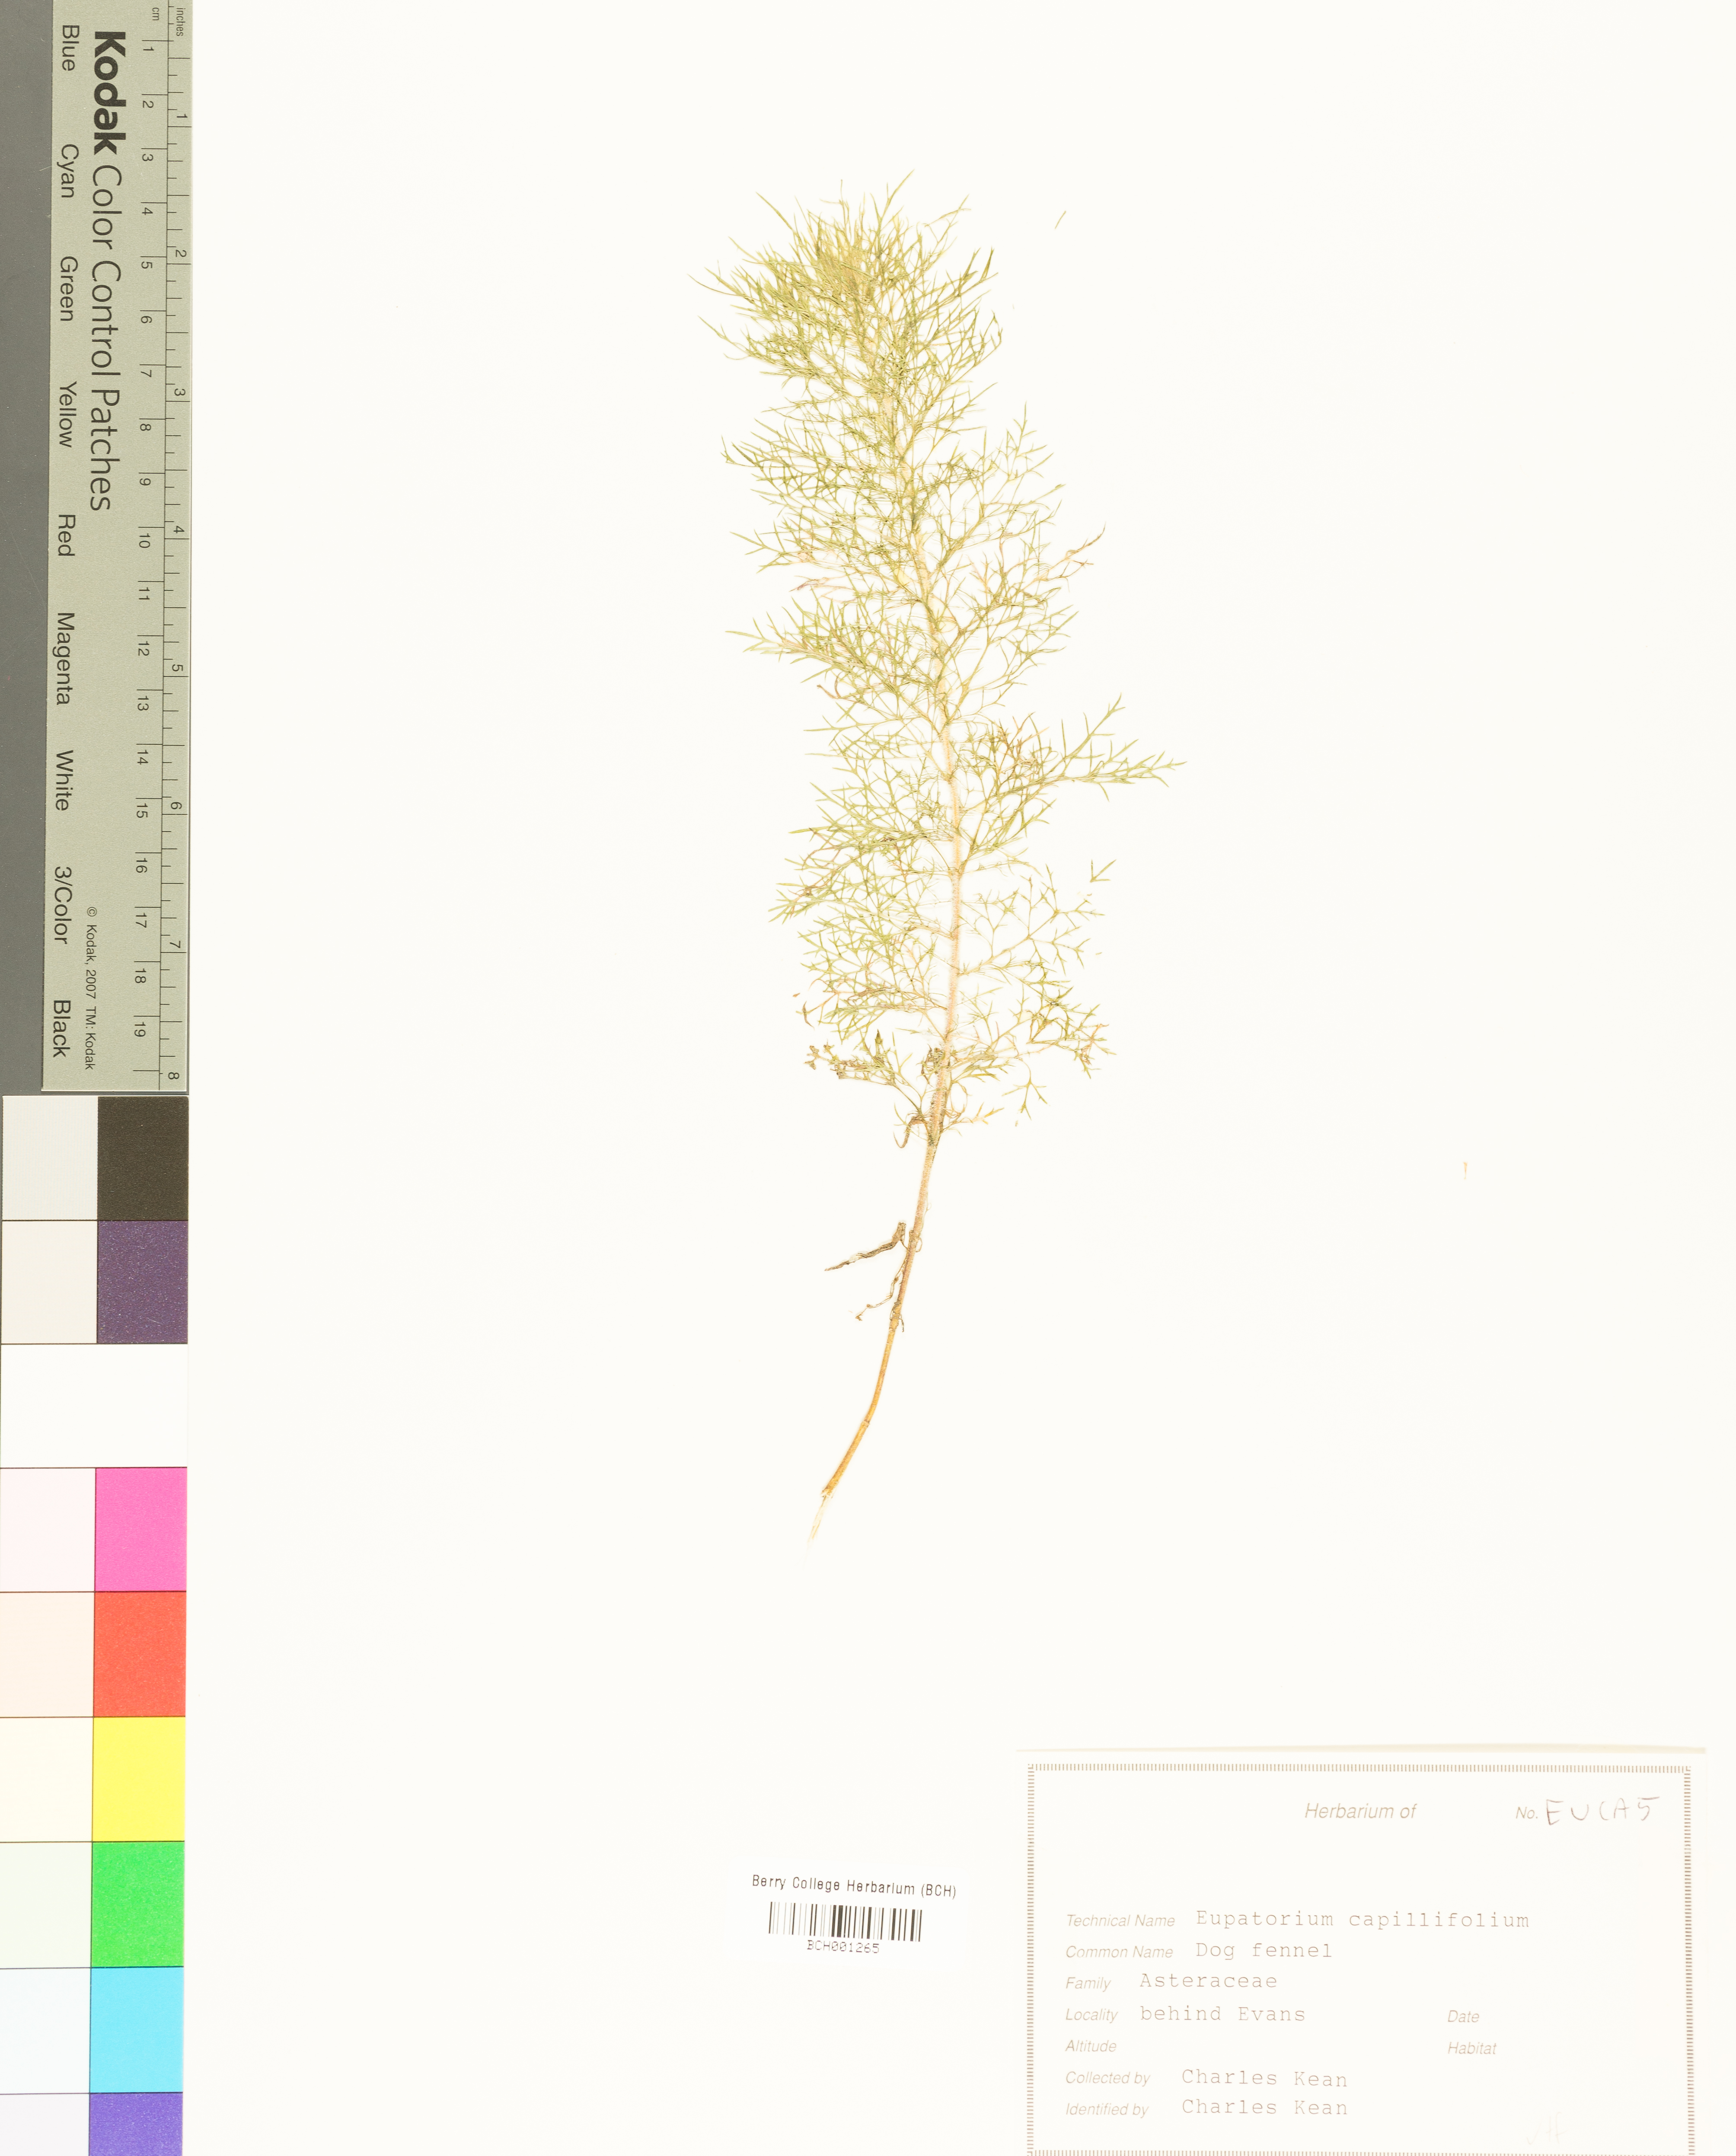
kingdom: Plantae
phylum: Tracheophyta
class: Magnoliopsida
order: Asterales
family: Asteraceae
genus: Eupatorium
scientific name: Eupatorium capillifolium
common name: Dog-fennel
